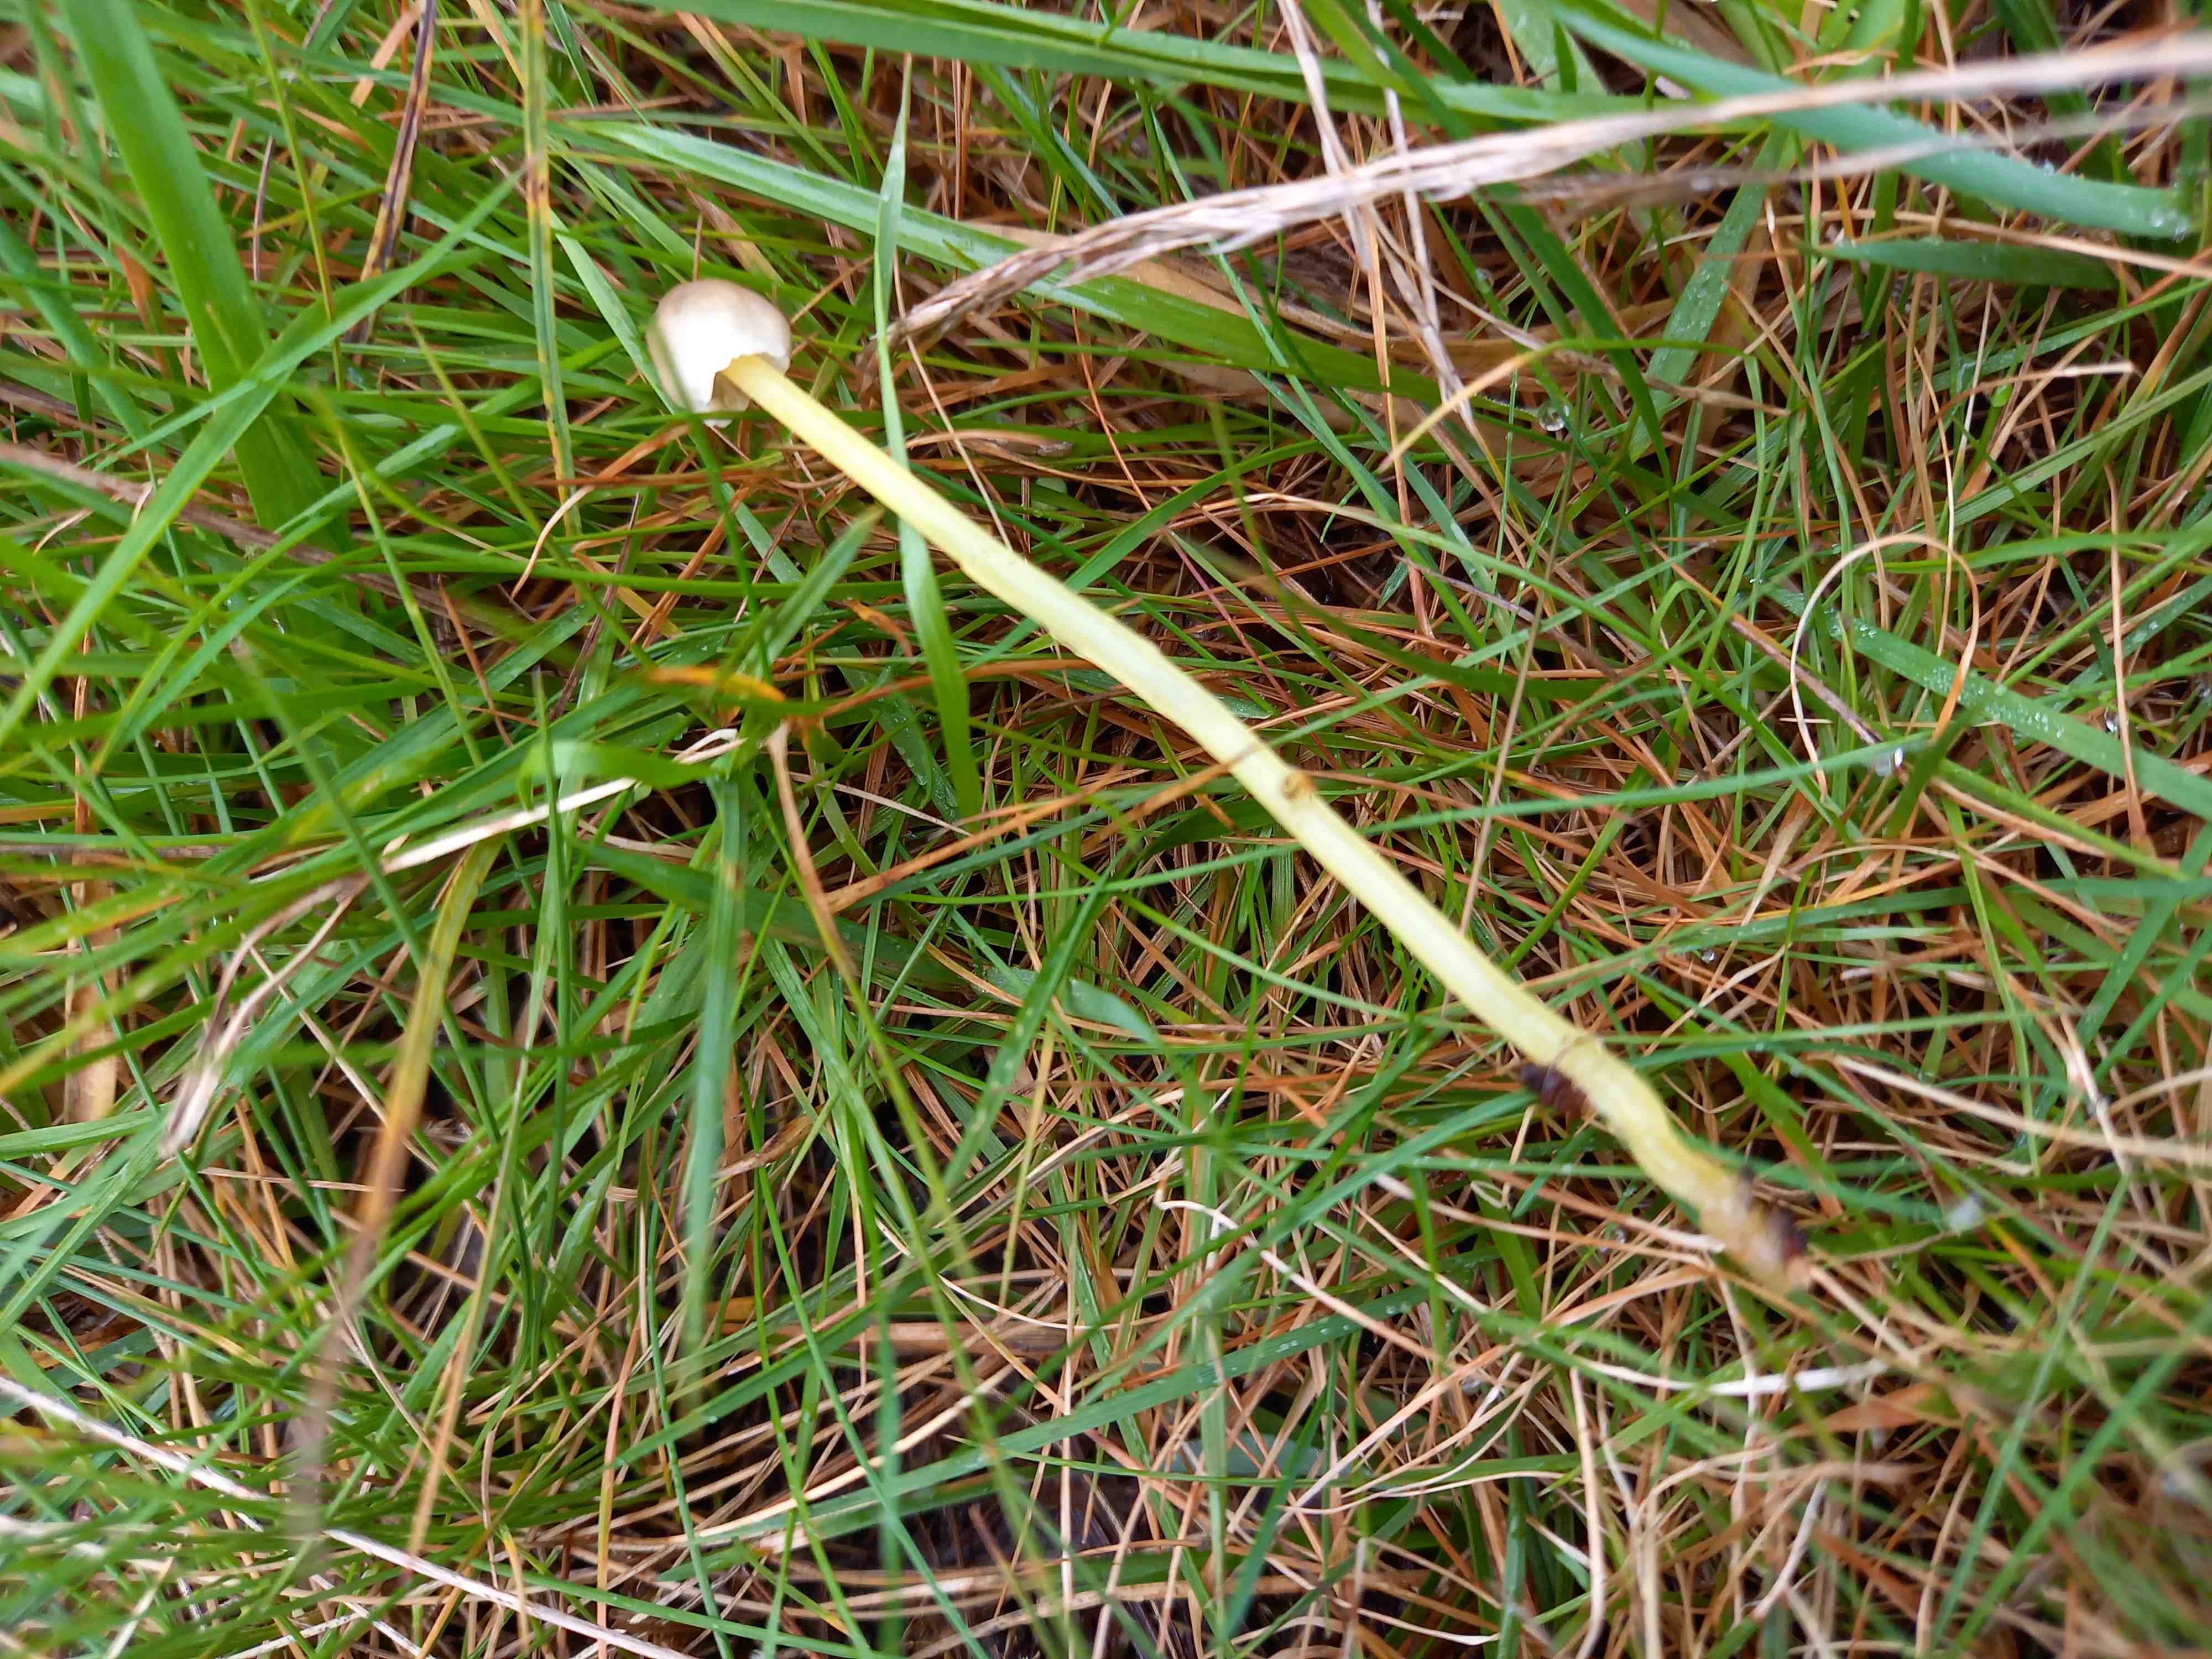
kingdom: Fungi
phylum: Basidiomycota
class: Agaricomycetes
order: Agaricales
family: Mycenaceae
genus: Mycena
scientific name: Mycena epipterygia
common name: gulstokket huesvamp
